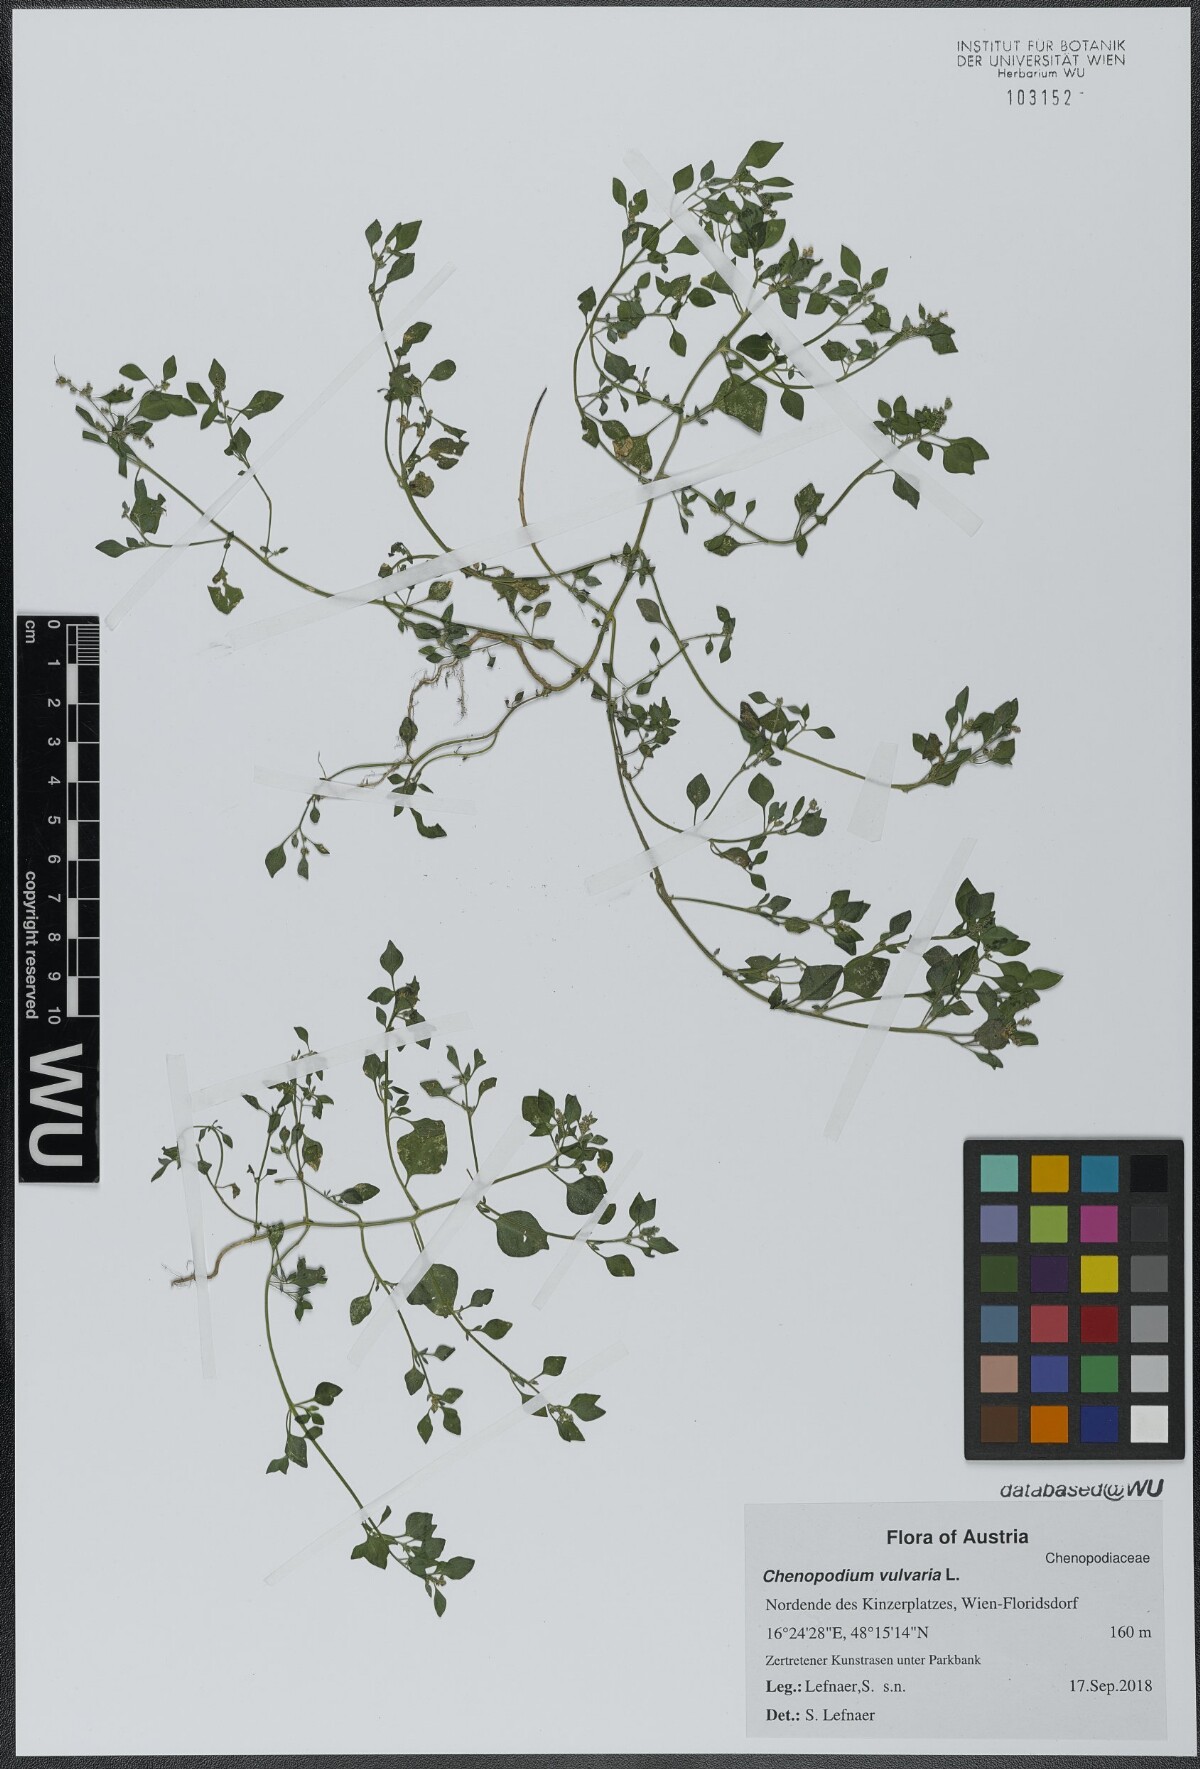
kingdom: Plantae
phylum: Tracheophyta
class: Magnoliopsida
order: Caryophyllales
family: Amaranthaceae
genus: Chenopodium
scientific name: Chenopodium vulvaria
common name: Stinking goosefoot
